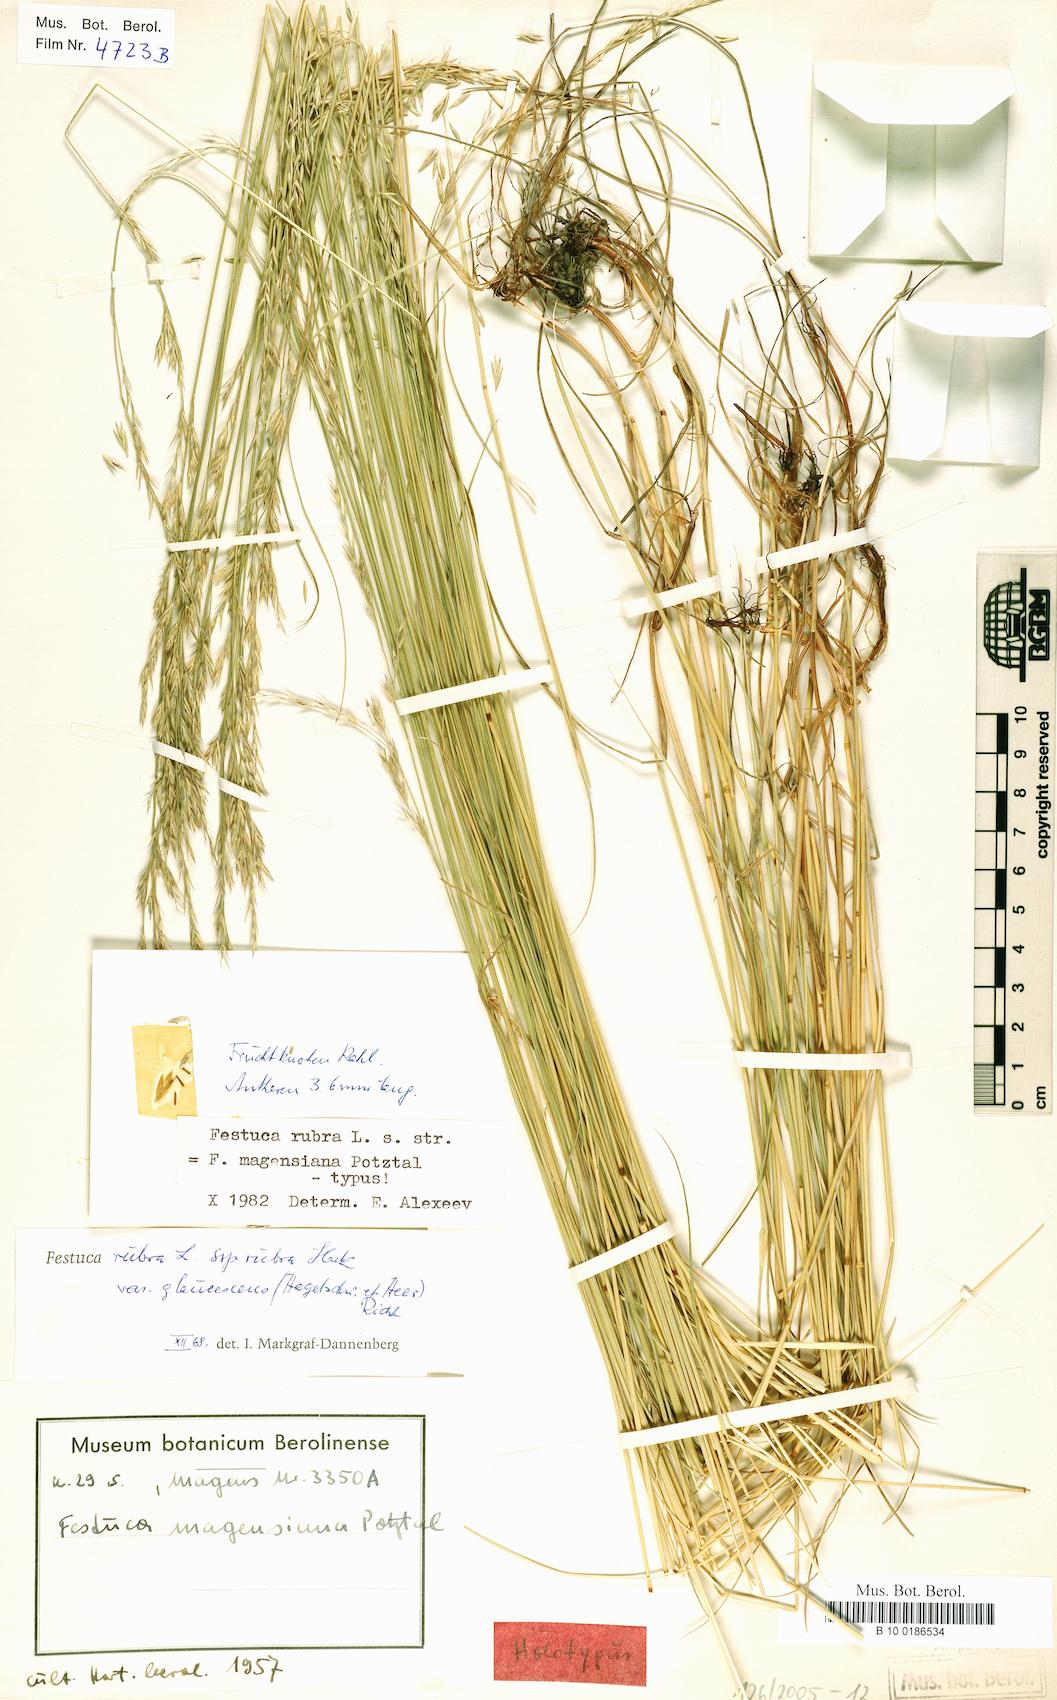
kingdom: Plantae
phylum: Tracheophyta
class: Liliopsida
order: Poales
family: Poaceae
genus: Festuca
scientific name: Festuca rubra
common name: Red fescue
